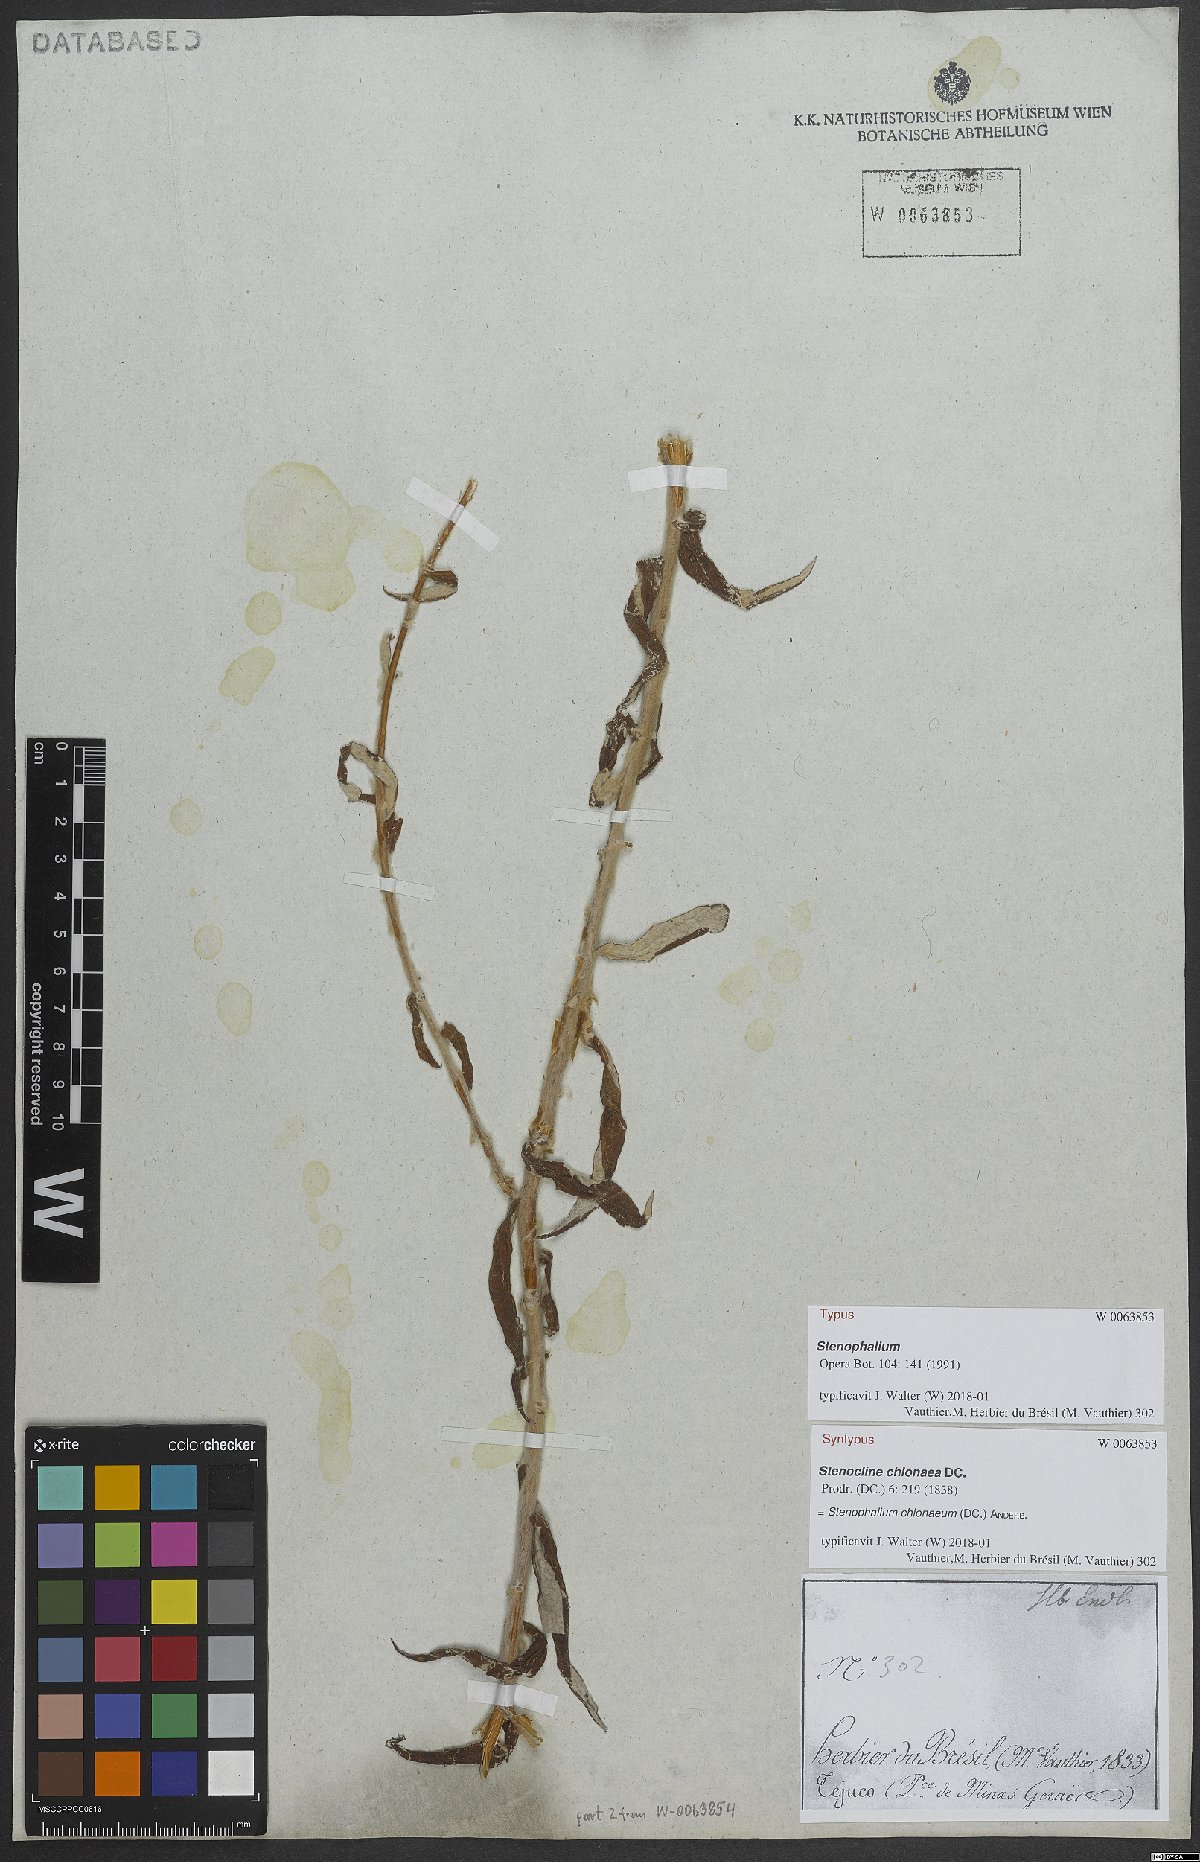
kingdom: Plantae
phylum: Tracheophyta
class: Magnoliopsida
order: Asterales
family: Asteraceae
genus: Achyrocline
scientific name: Achyrocline chionaea
